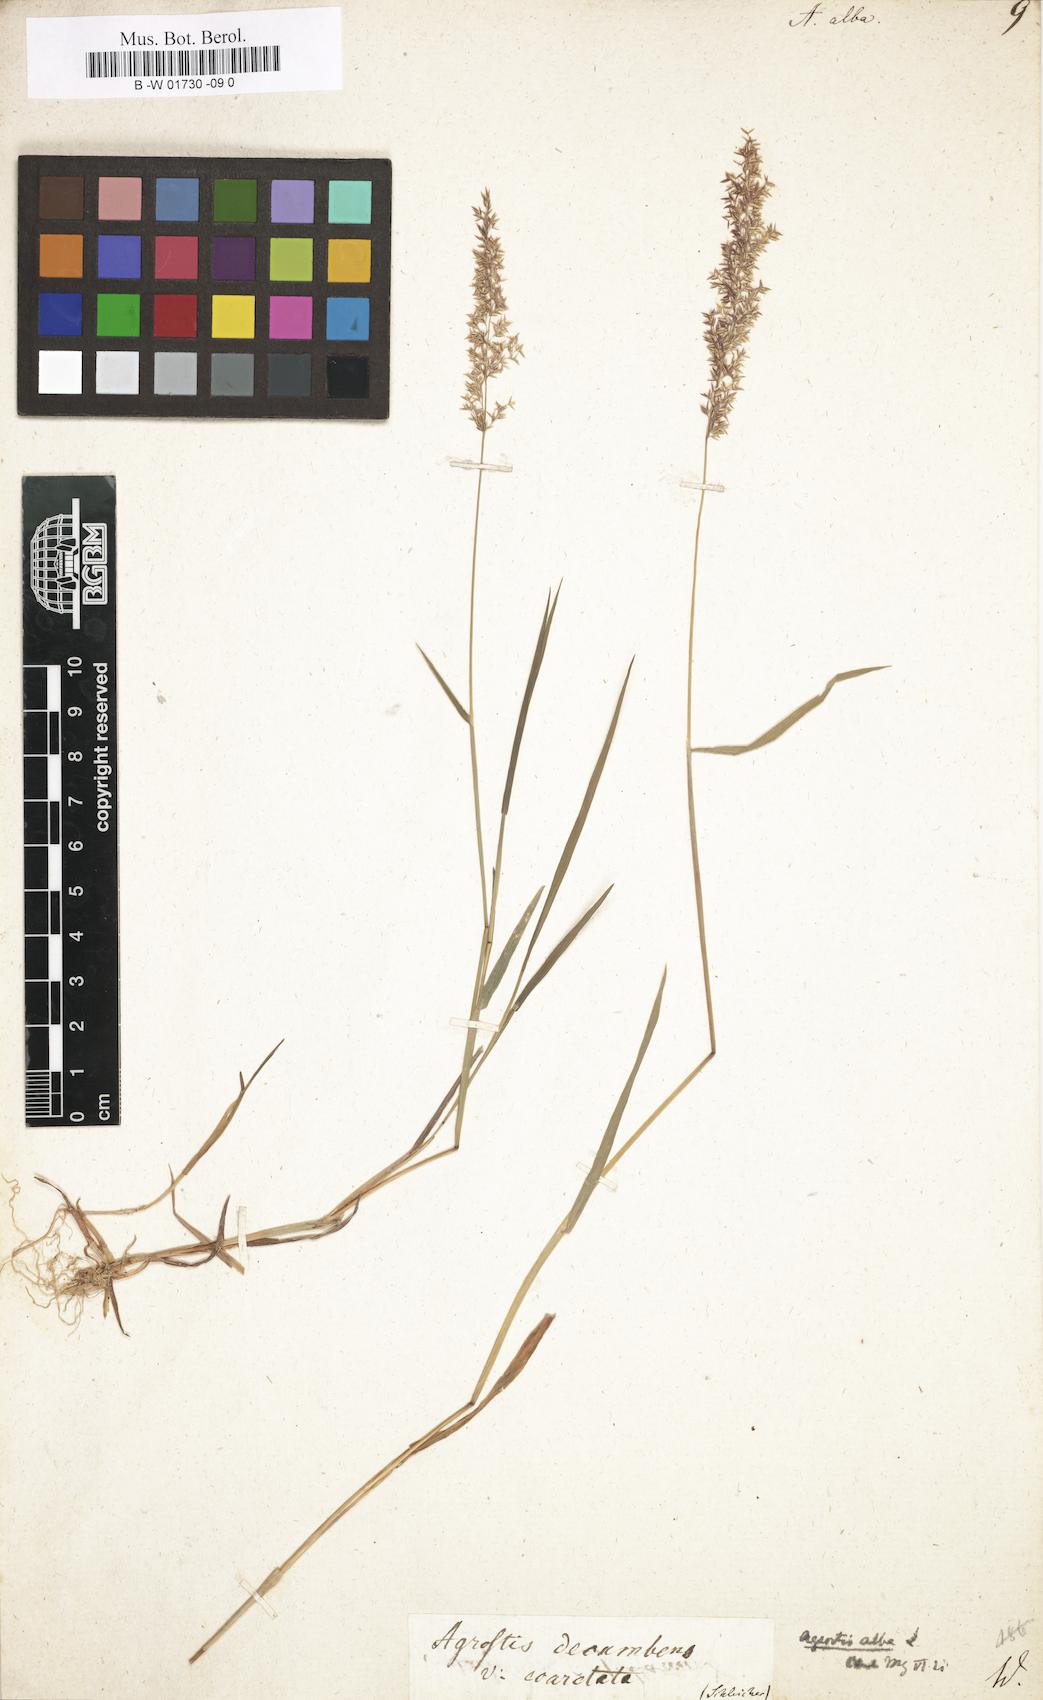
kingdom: Plantae
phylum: Tracheophyta
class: Liliopsida
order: Poales
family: Poaceae
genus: Poa
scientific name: Poa nemoralis
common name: Wood bluegrass
